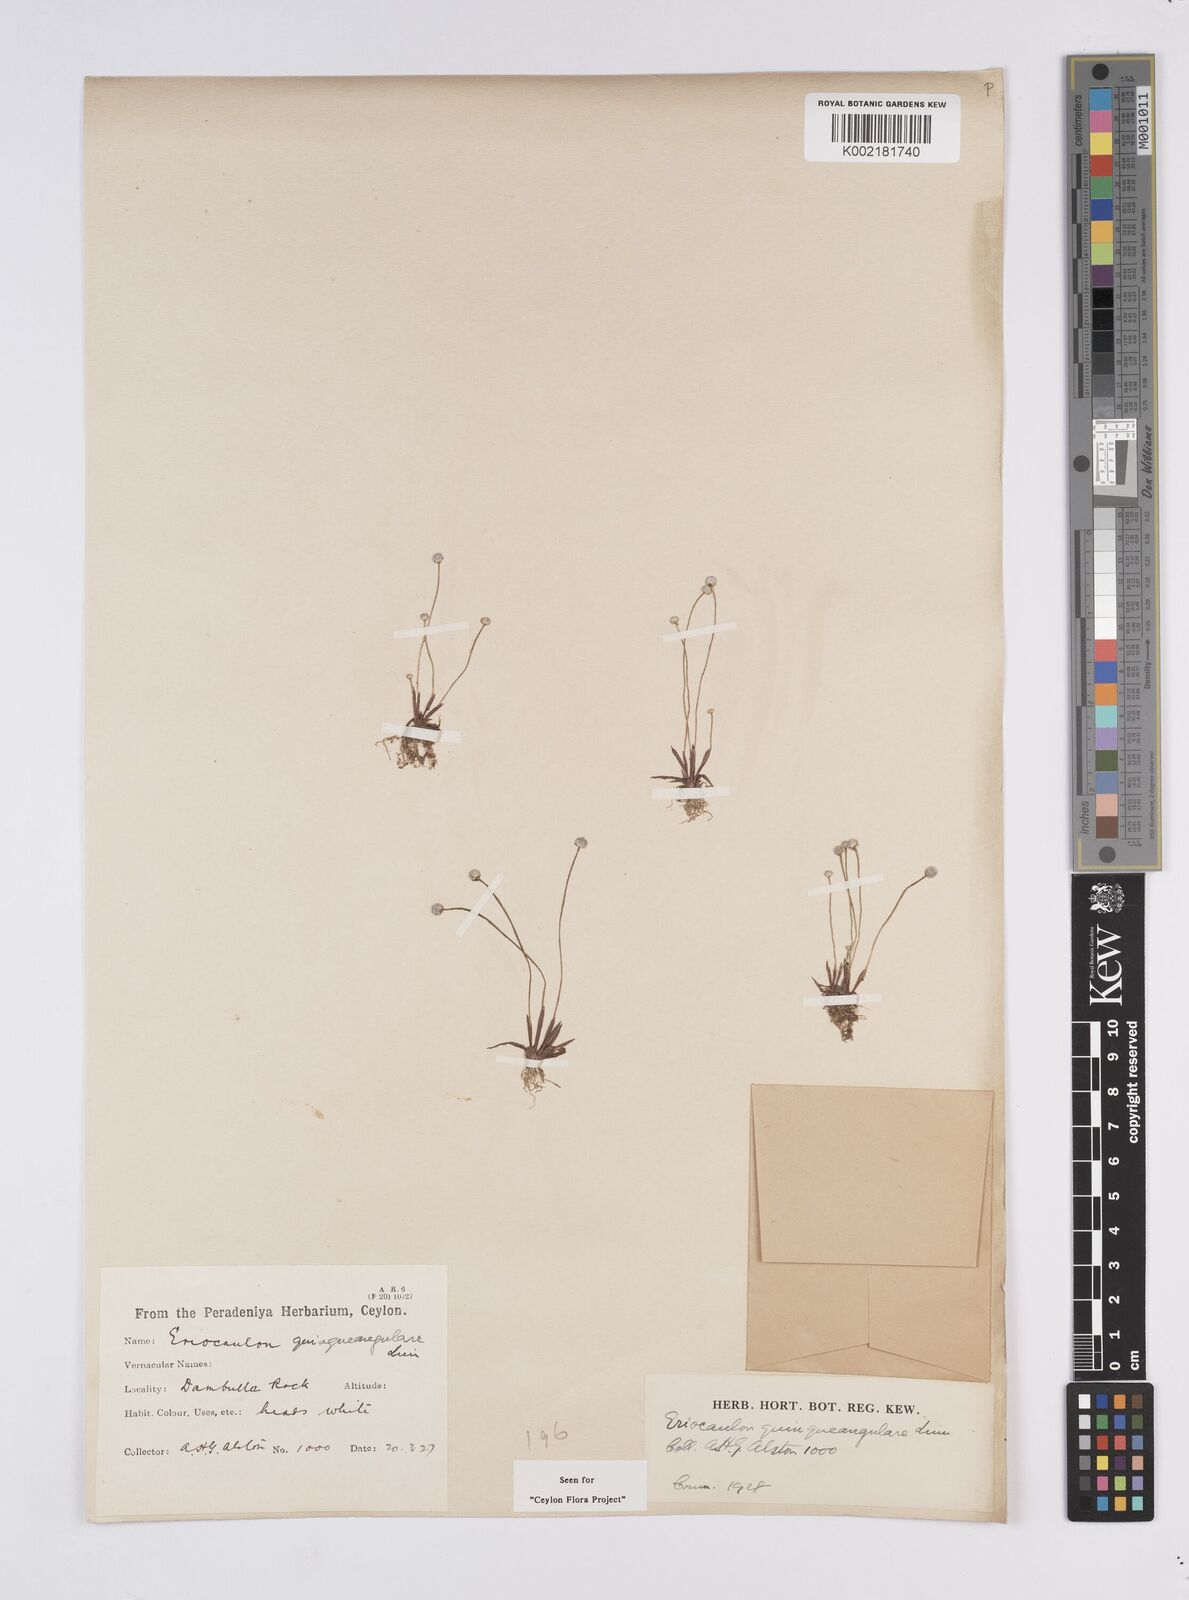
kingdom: Plantae
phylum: Tracheophyta
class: Liliopsida
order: Poales
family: Eriocaulaceae
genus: Eriocaulon
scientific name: Eriocaulon quinquangulare
